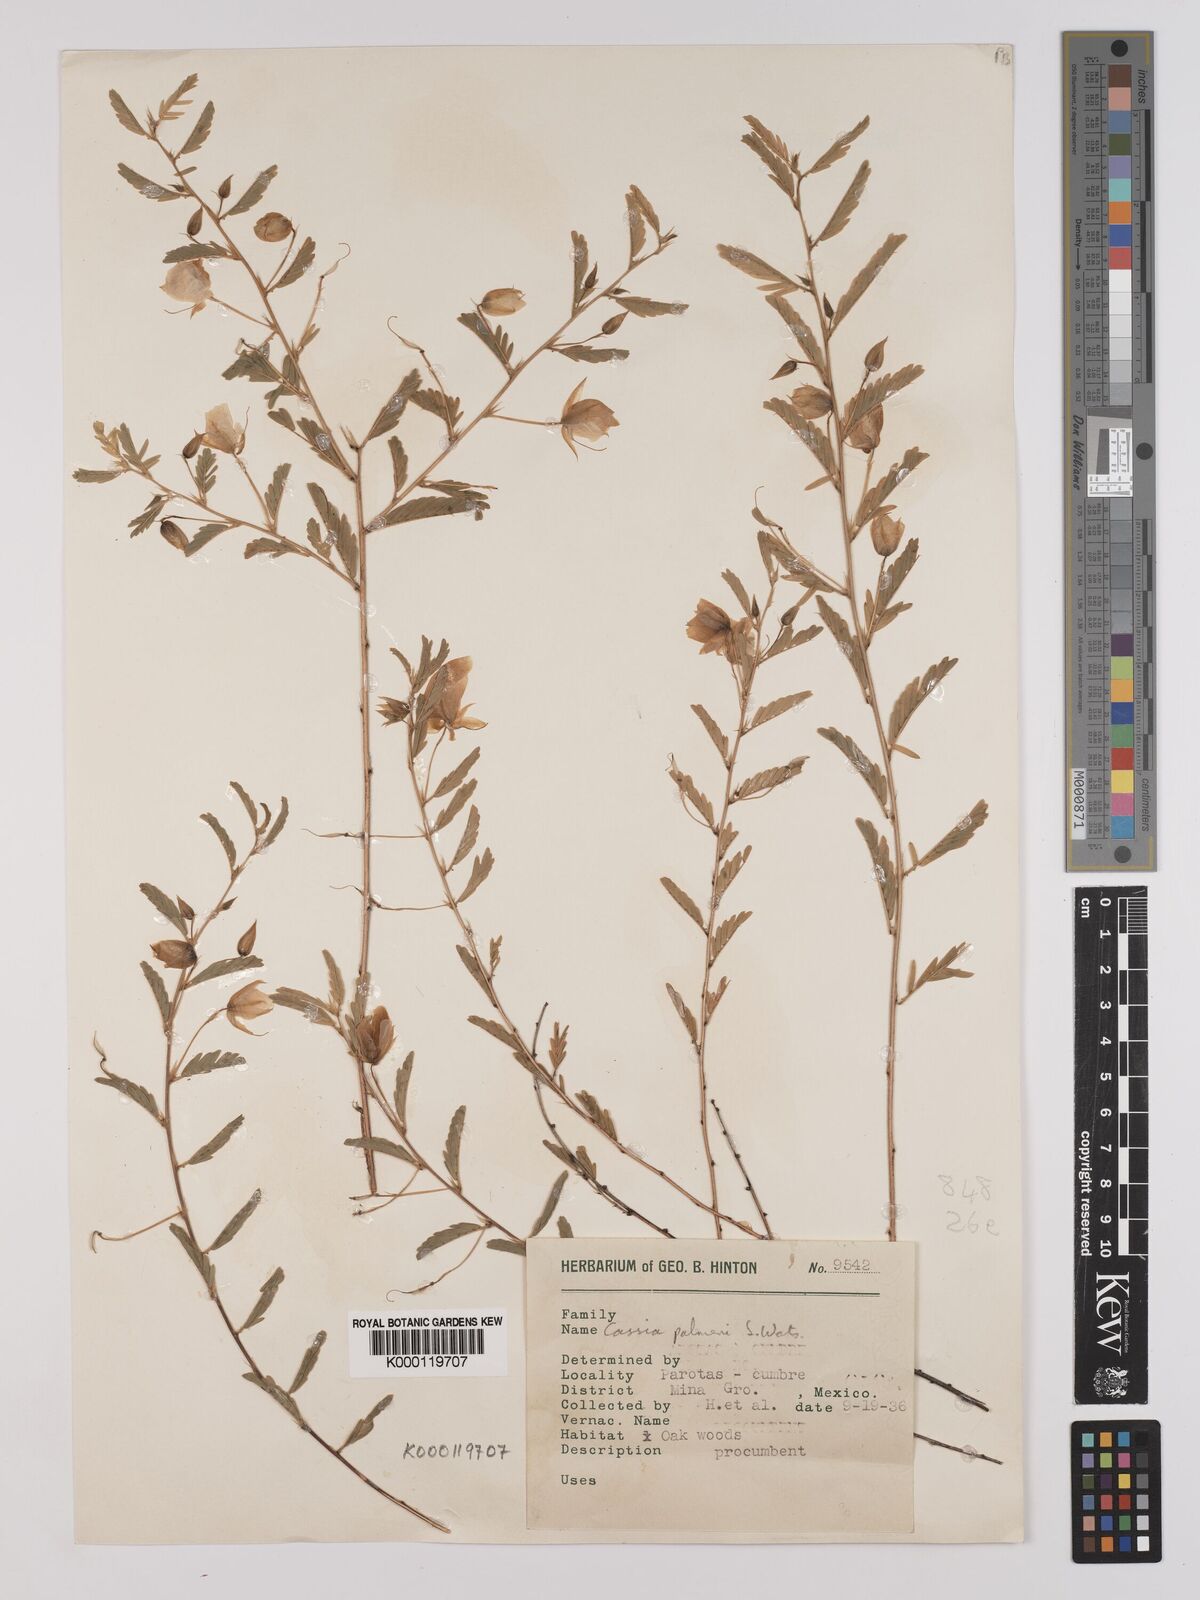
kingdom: Plantae
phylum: Tracheophyta
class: Magnoliopsida
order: Fabales
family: Fabaceae
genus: Chamaecrista
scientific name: Chamaecrista serpens
